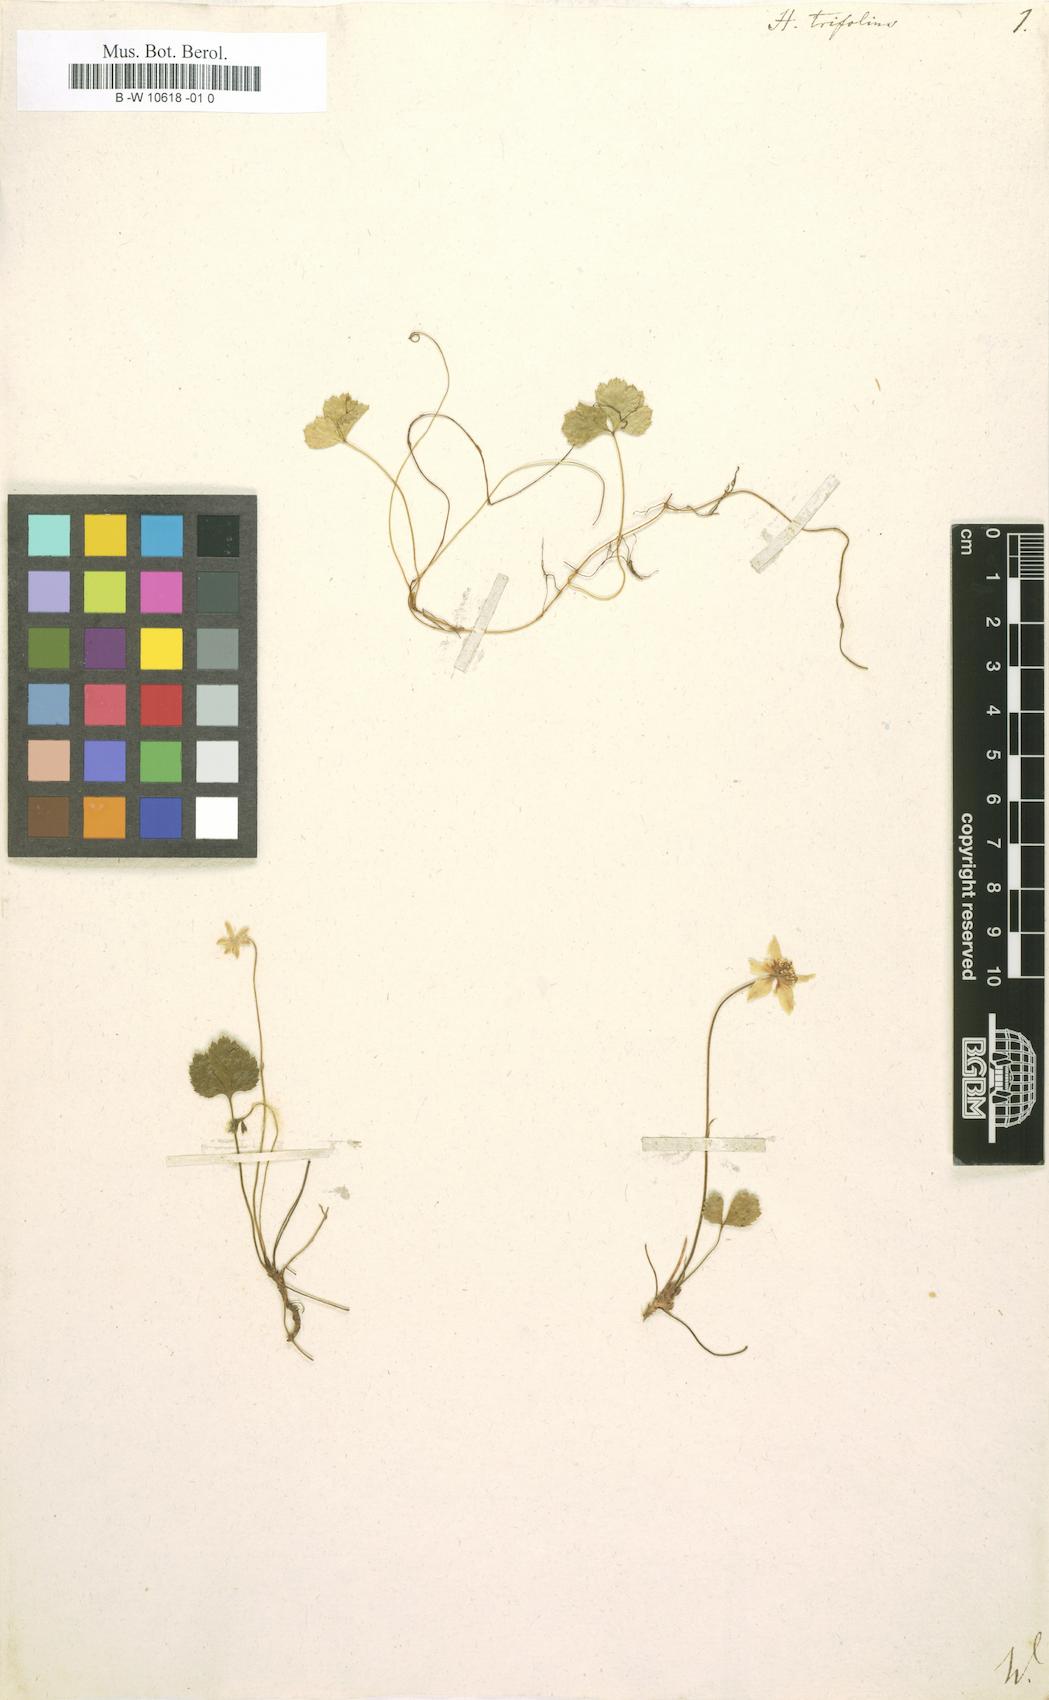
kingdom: Plantae
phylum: Tracheophyta
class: Magnoliopsida
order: Ranunculales
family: Ranunculaceae
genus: Coptis
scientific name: Coptis trifolia
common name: Canker-root
